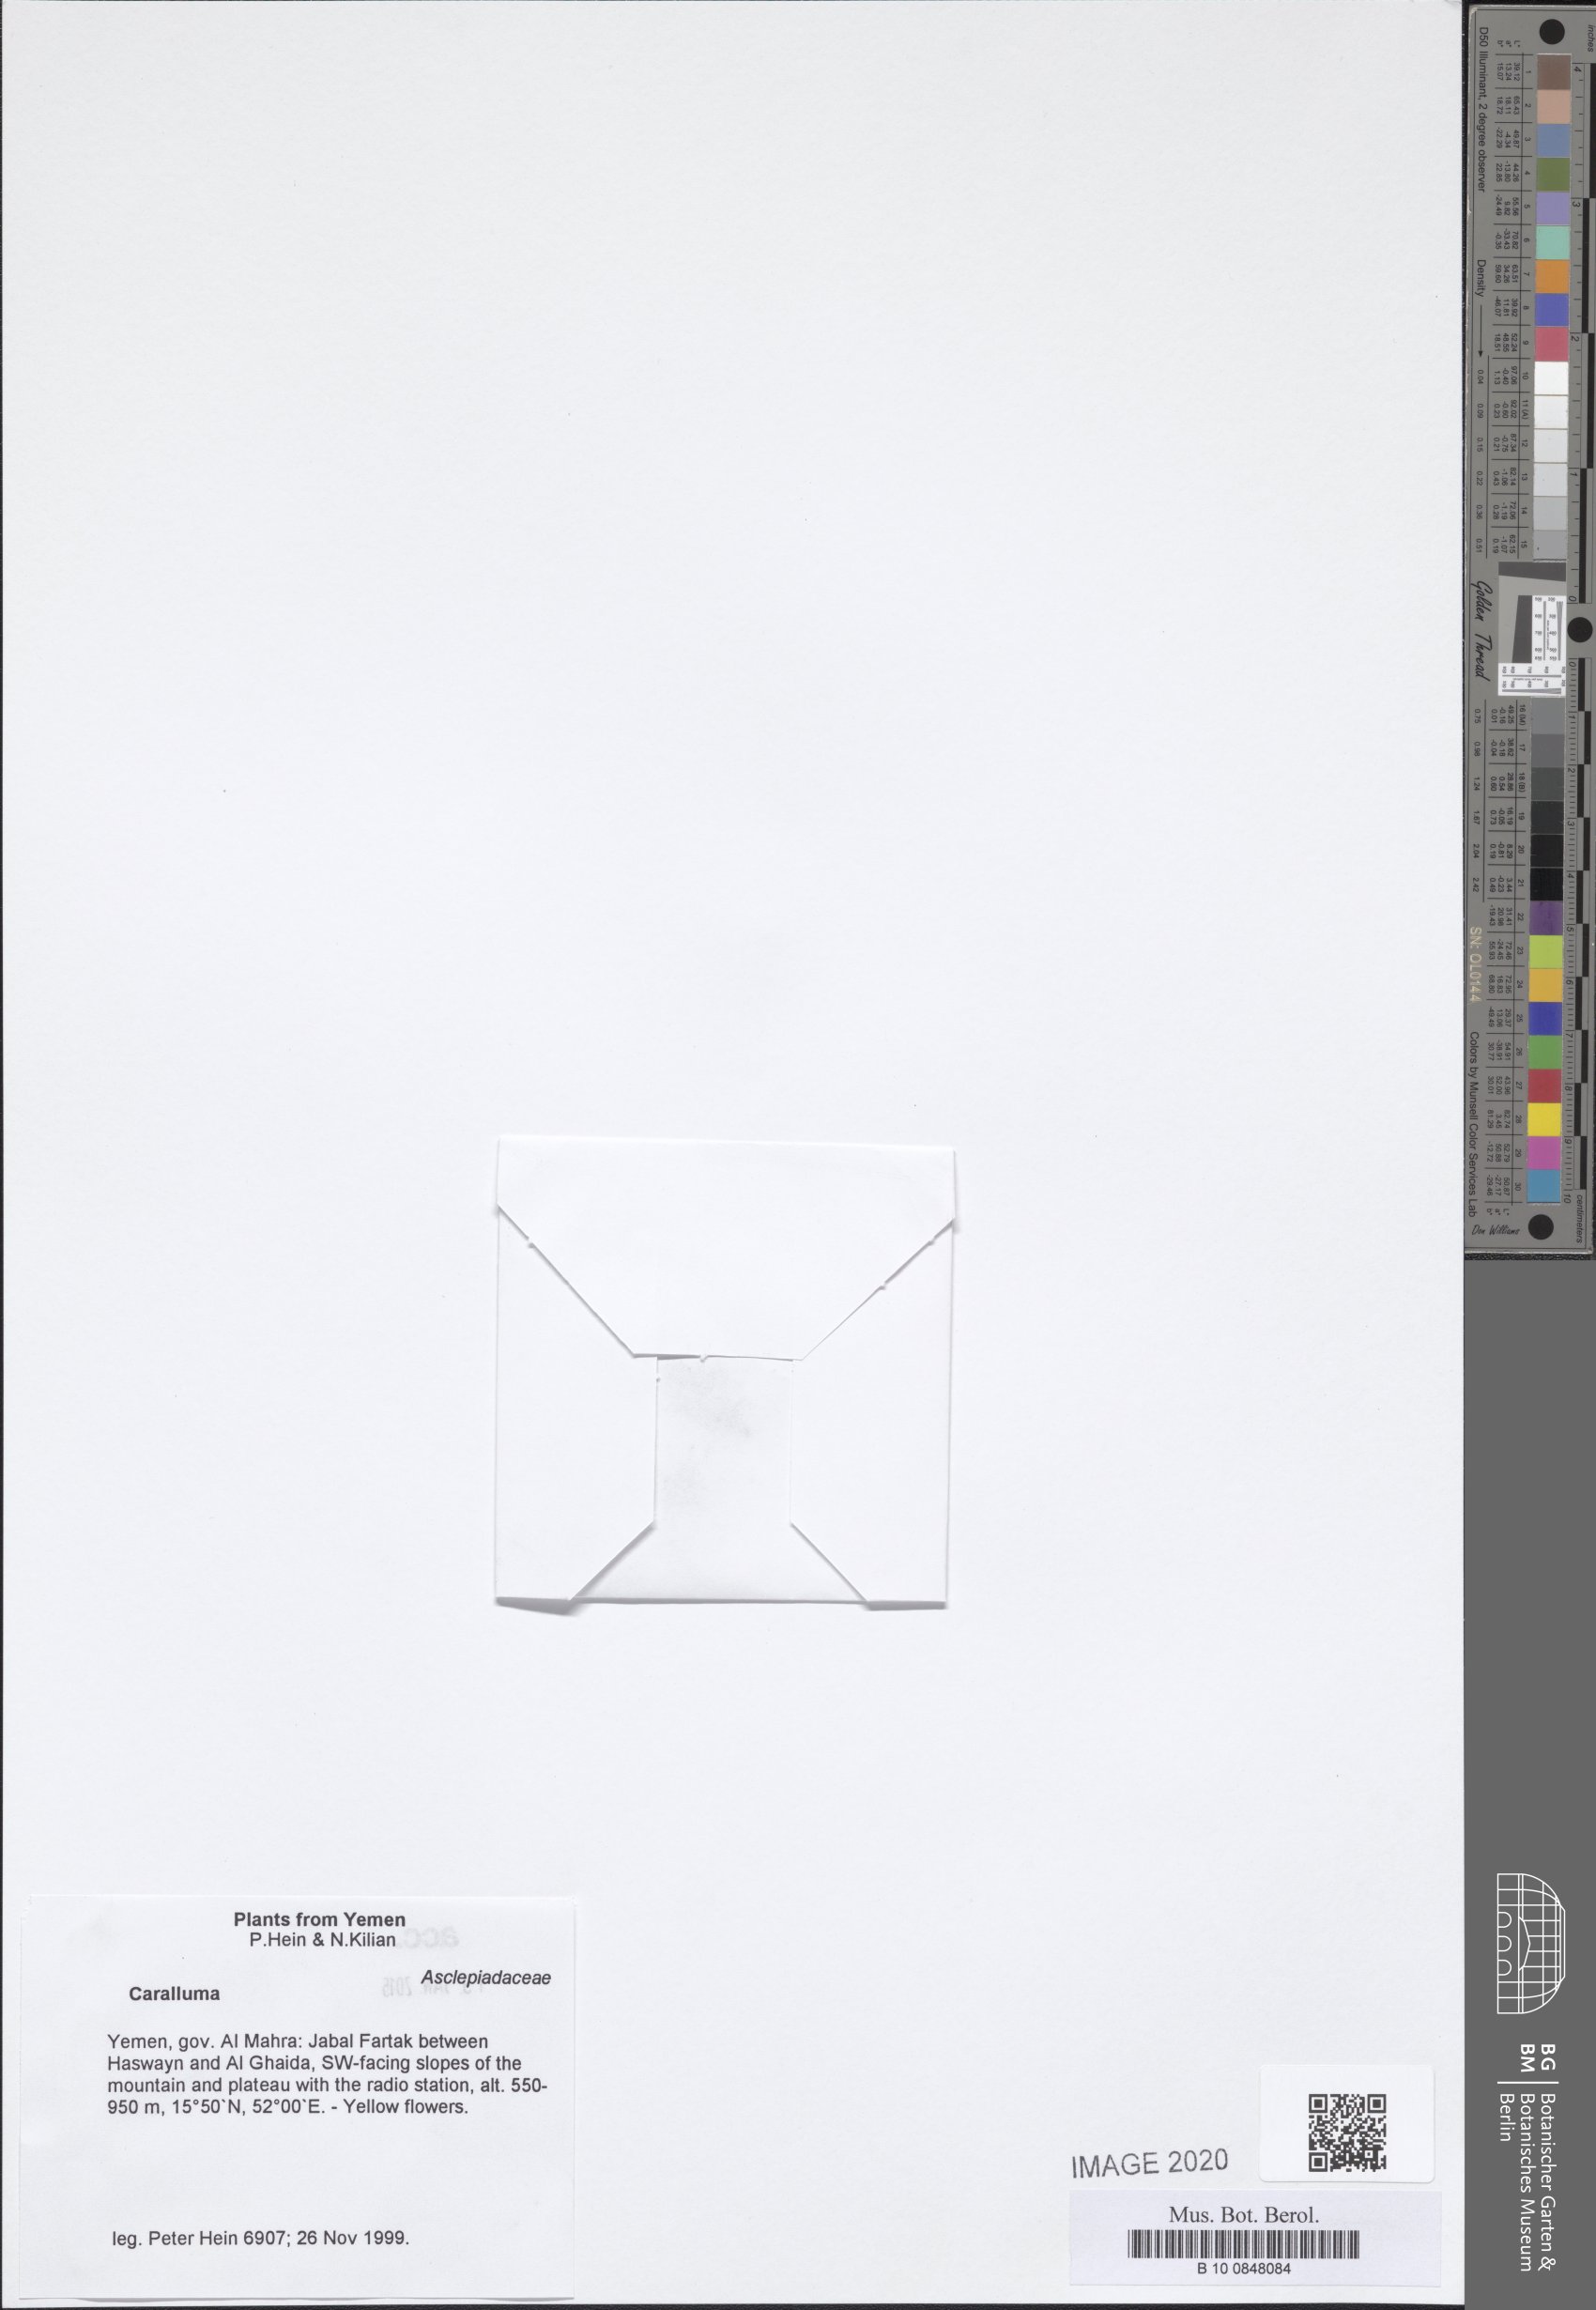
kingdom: Plantae
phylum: Tracheophyta
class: Magnoliopsida
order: Gentianales
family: Apocynaceae
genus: Ceropegia
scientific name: Ceropegia quadrangula
